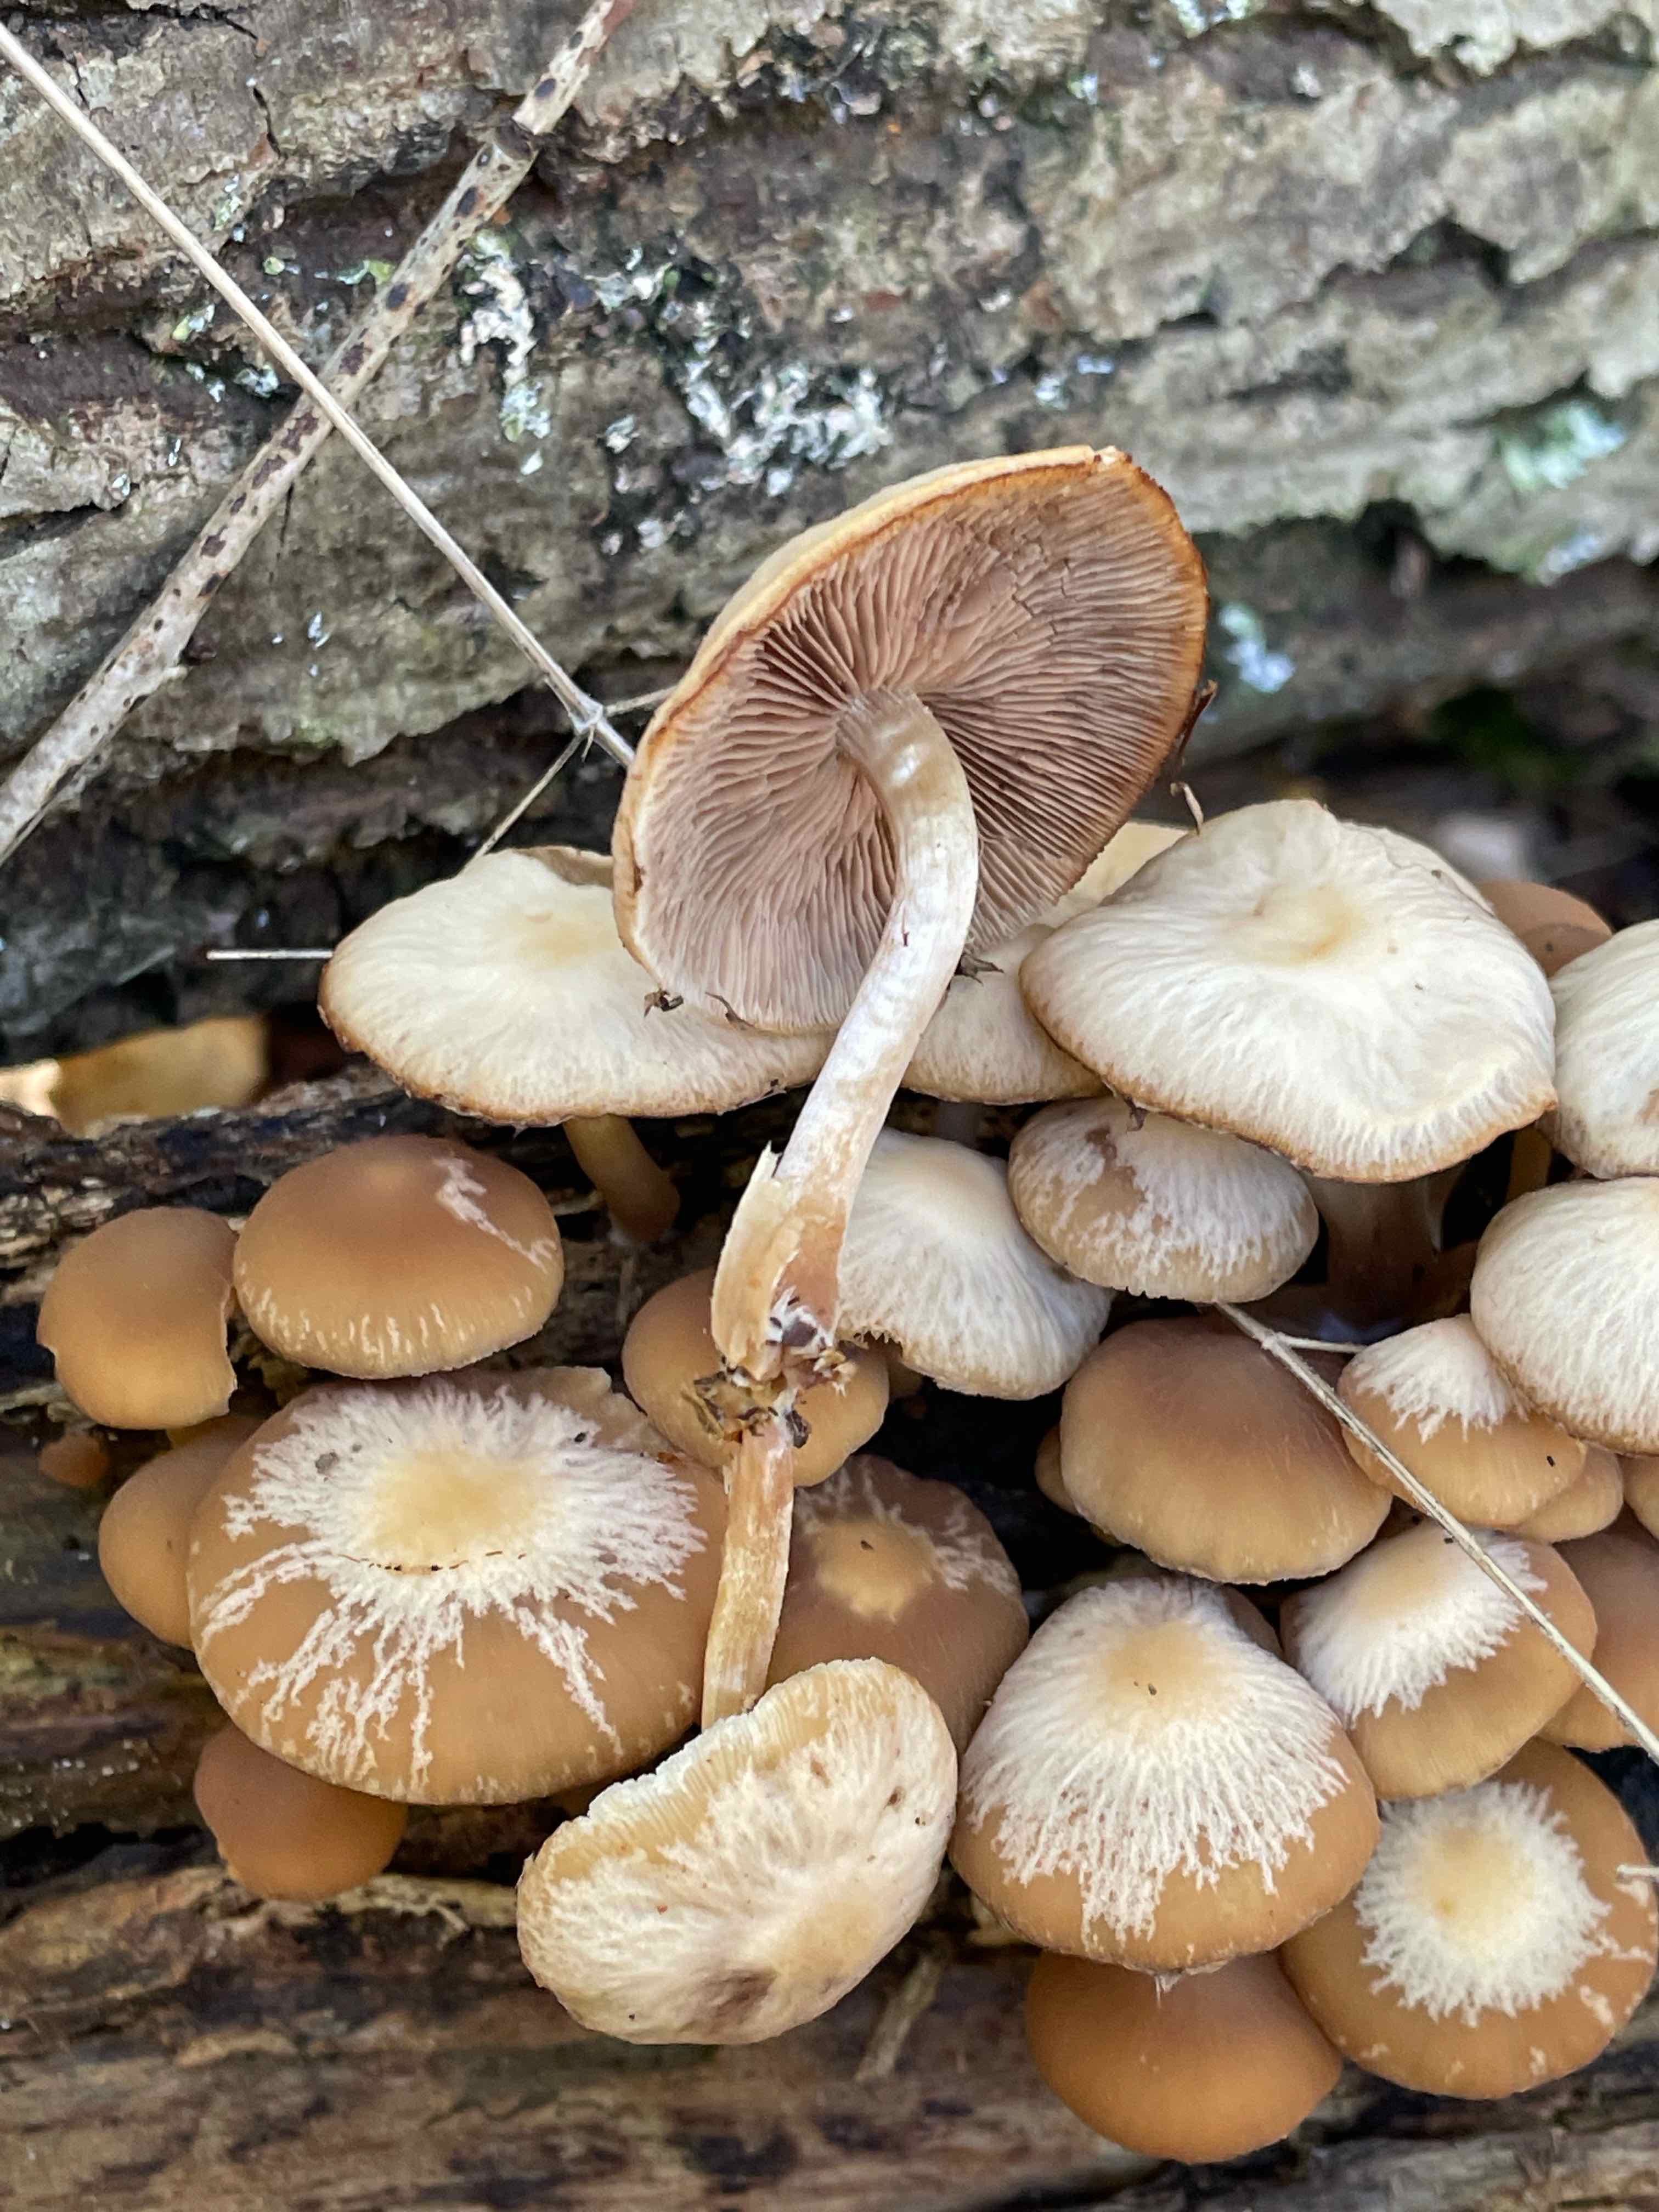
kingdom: Fungi
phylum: Basidiomycota
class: Agaricomycetes
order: Agaricales
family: Psathyrellaceae
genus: Psathyrella
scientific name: Psathyrella piluliformis
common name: lysstokket mørkhat
